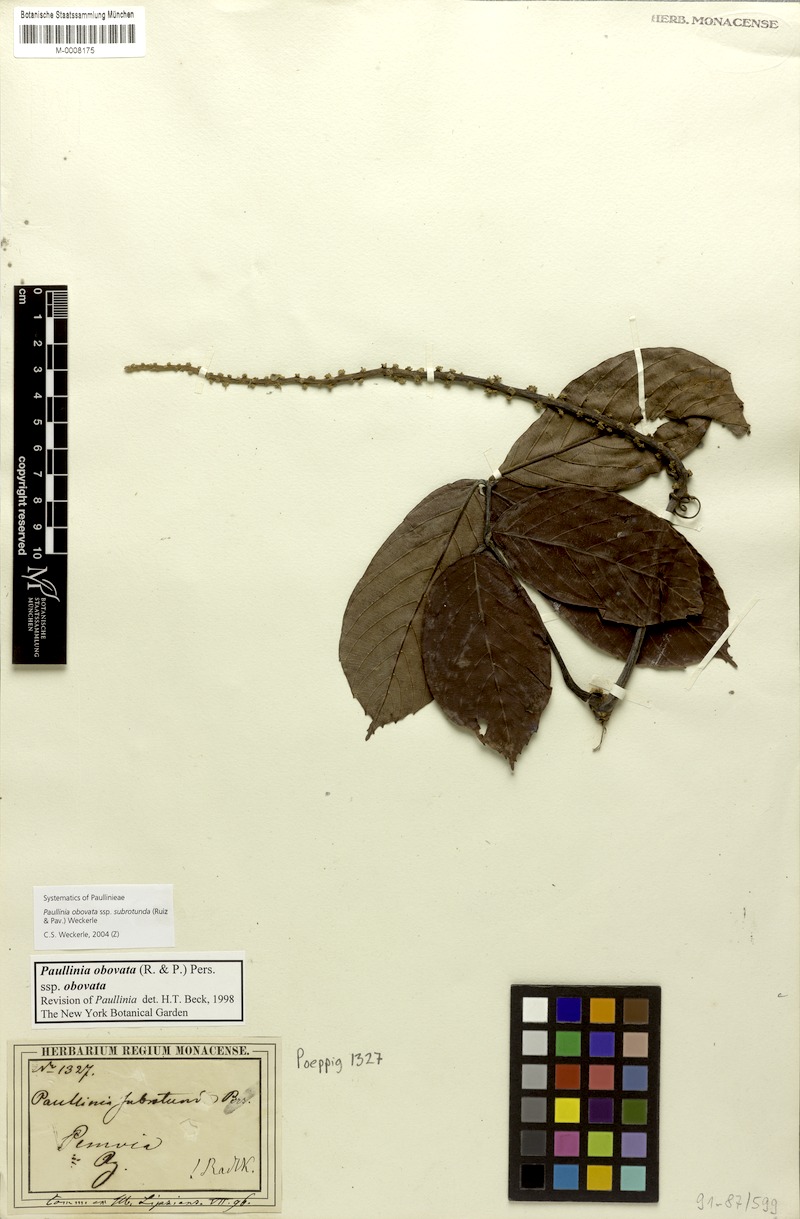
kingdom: Plantae
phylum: Tracheophyta
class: Magnoliopsida
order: Sapindales
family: Sapindaceae
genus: Paullinia
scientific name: Paullinia obovata
